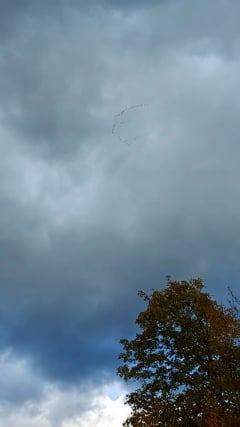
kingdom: Animalia
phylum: Chordata
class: Aves
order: Gruiformes
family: Gruidae
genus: Grus
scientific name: Grus grus
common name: Common crane
